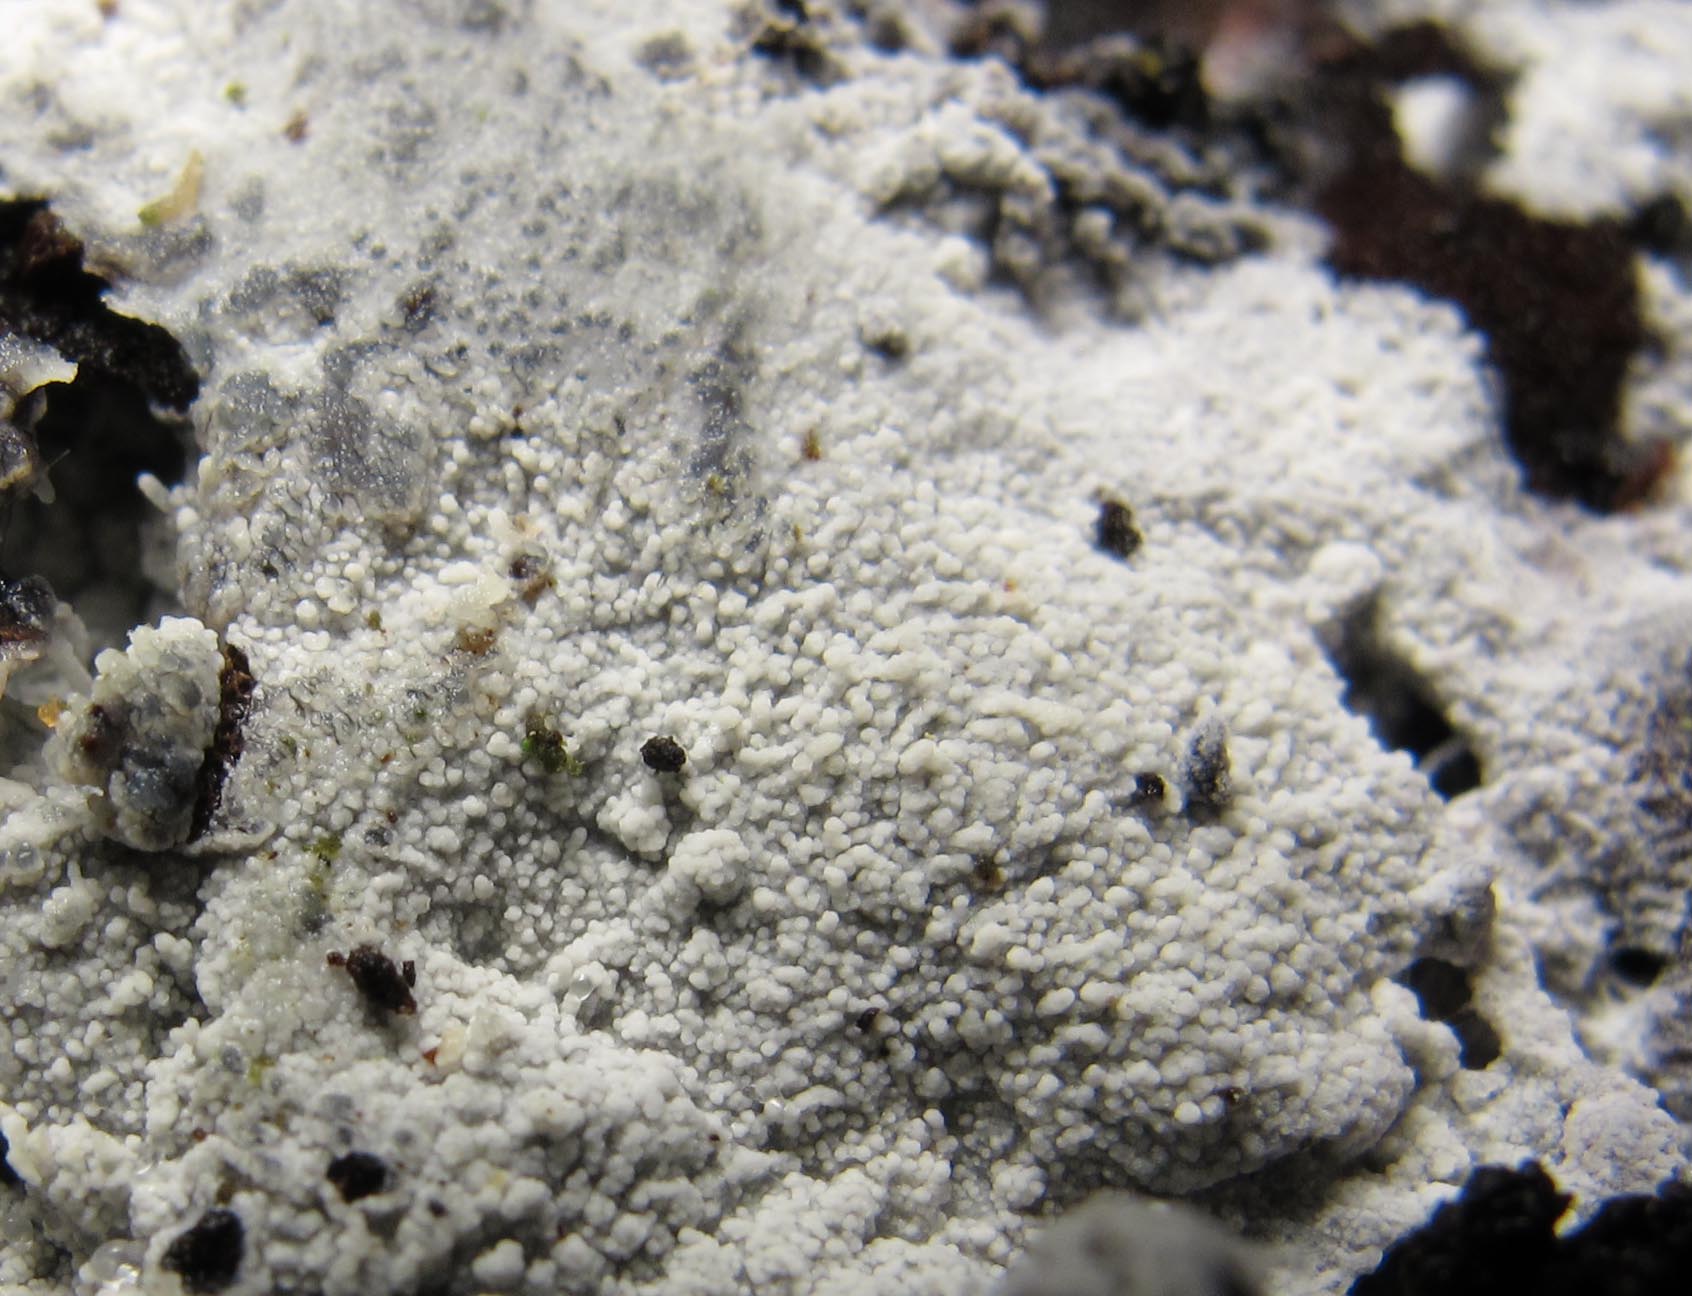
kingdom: Fungi
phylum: Basidiomycota
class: Agaricomycetes
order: Cantharellales
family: Hydnaceae
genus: Sistotrema
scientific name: Sistotrema brinkmannii
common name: bønnesporet kroneskorpe
